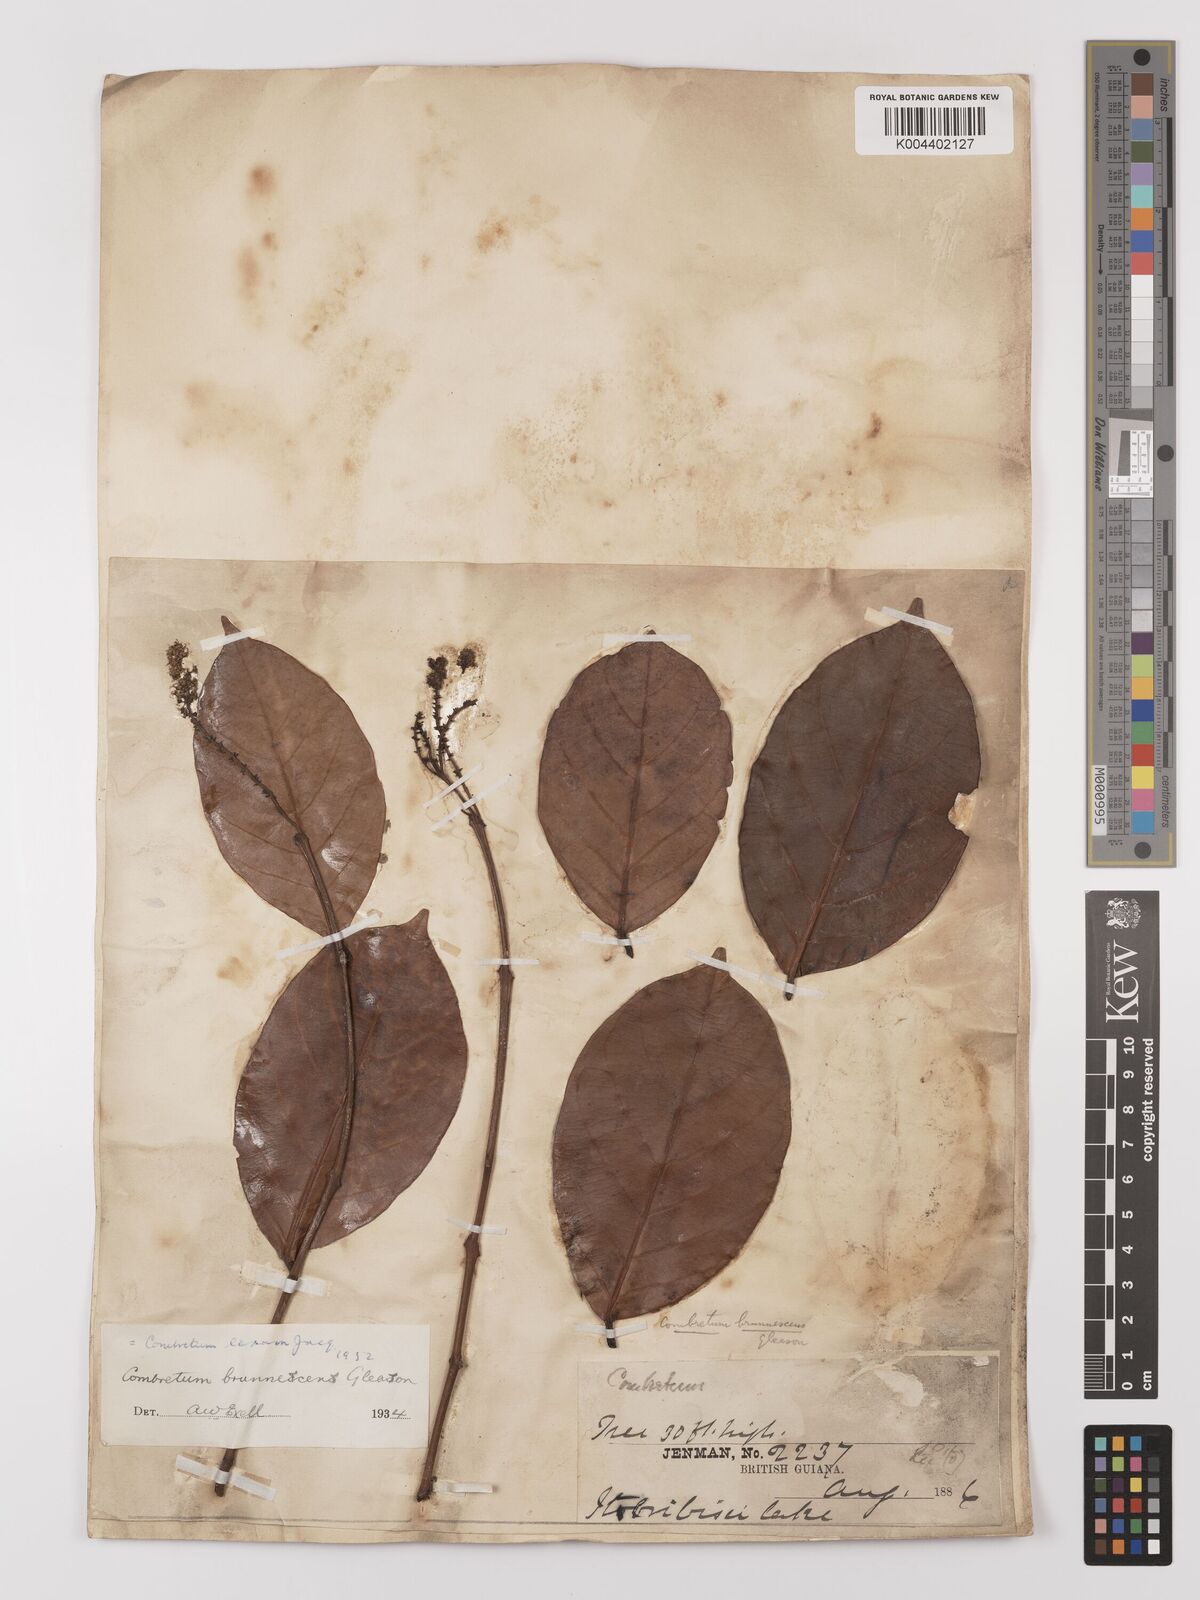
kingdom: Plantae
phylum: Tracheophyta
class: Magnoliopsida
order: Myrtales
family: Combretaceae
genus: Combretum
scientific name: Combretum
